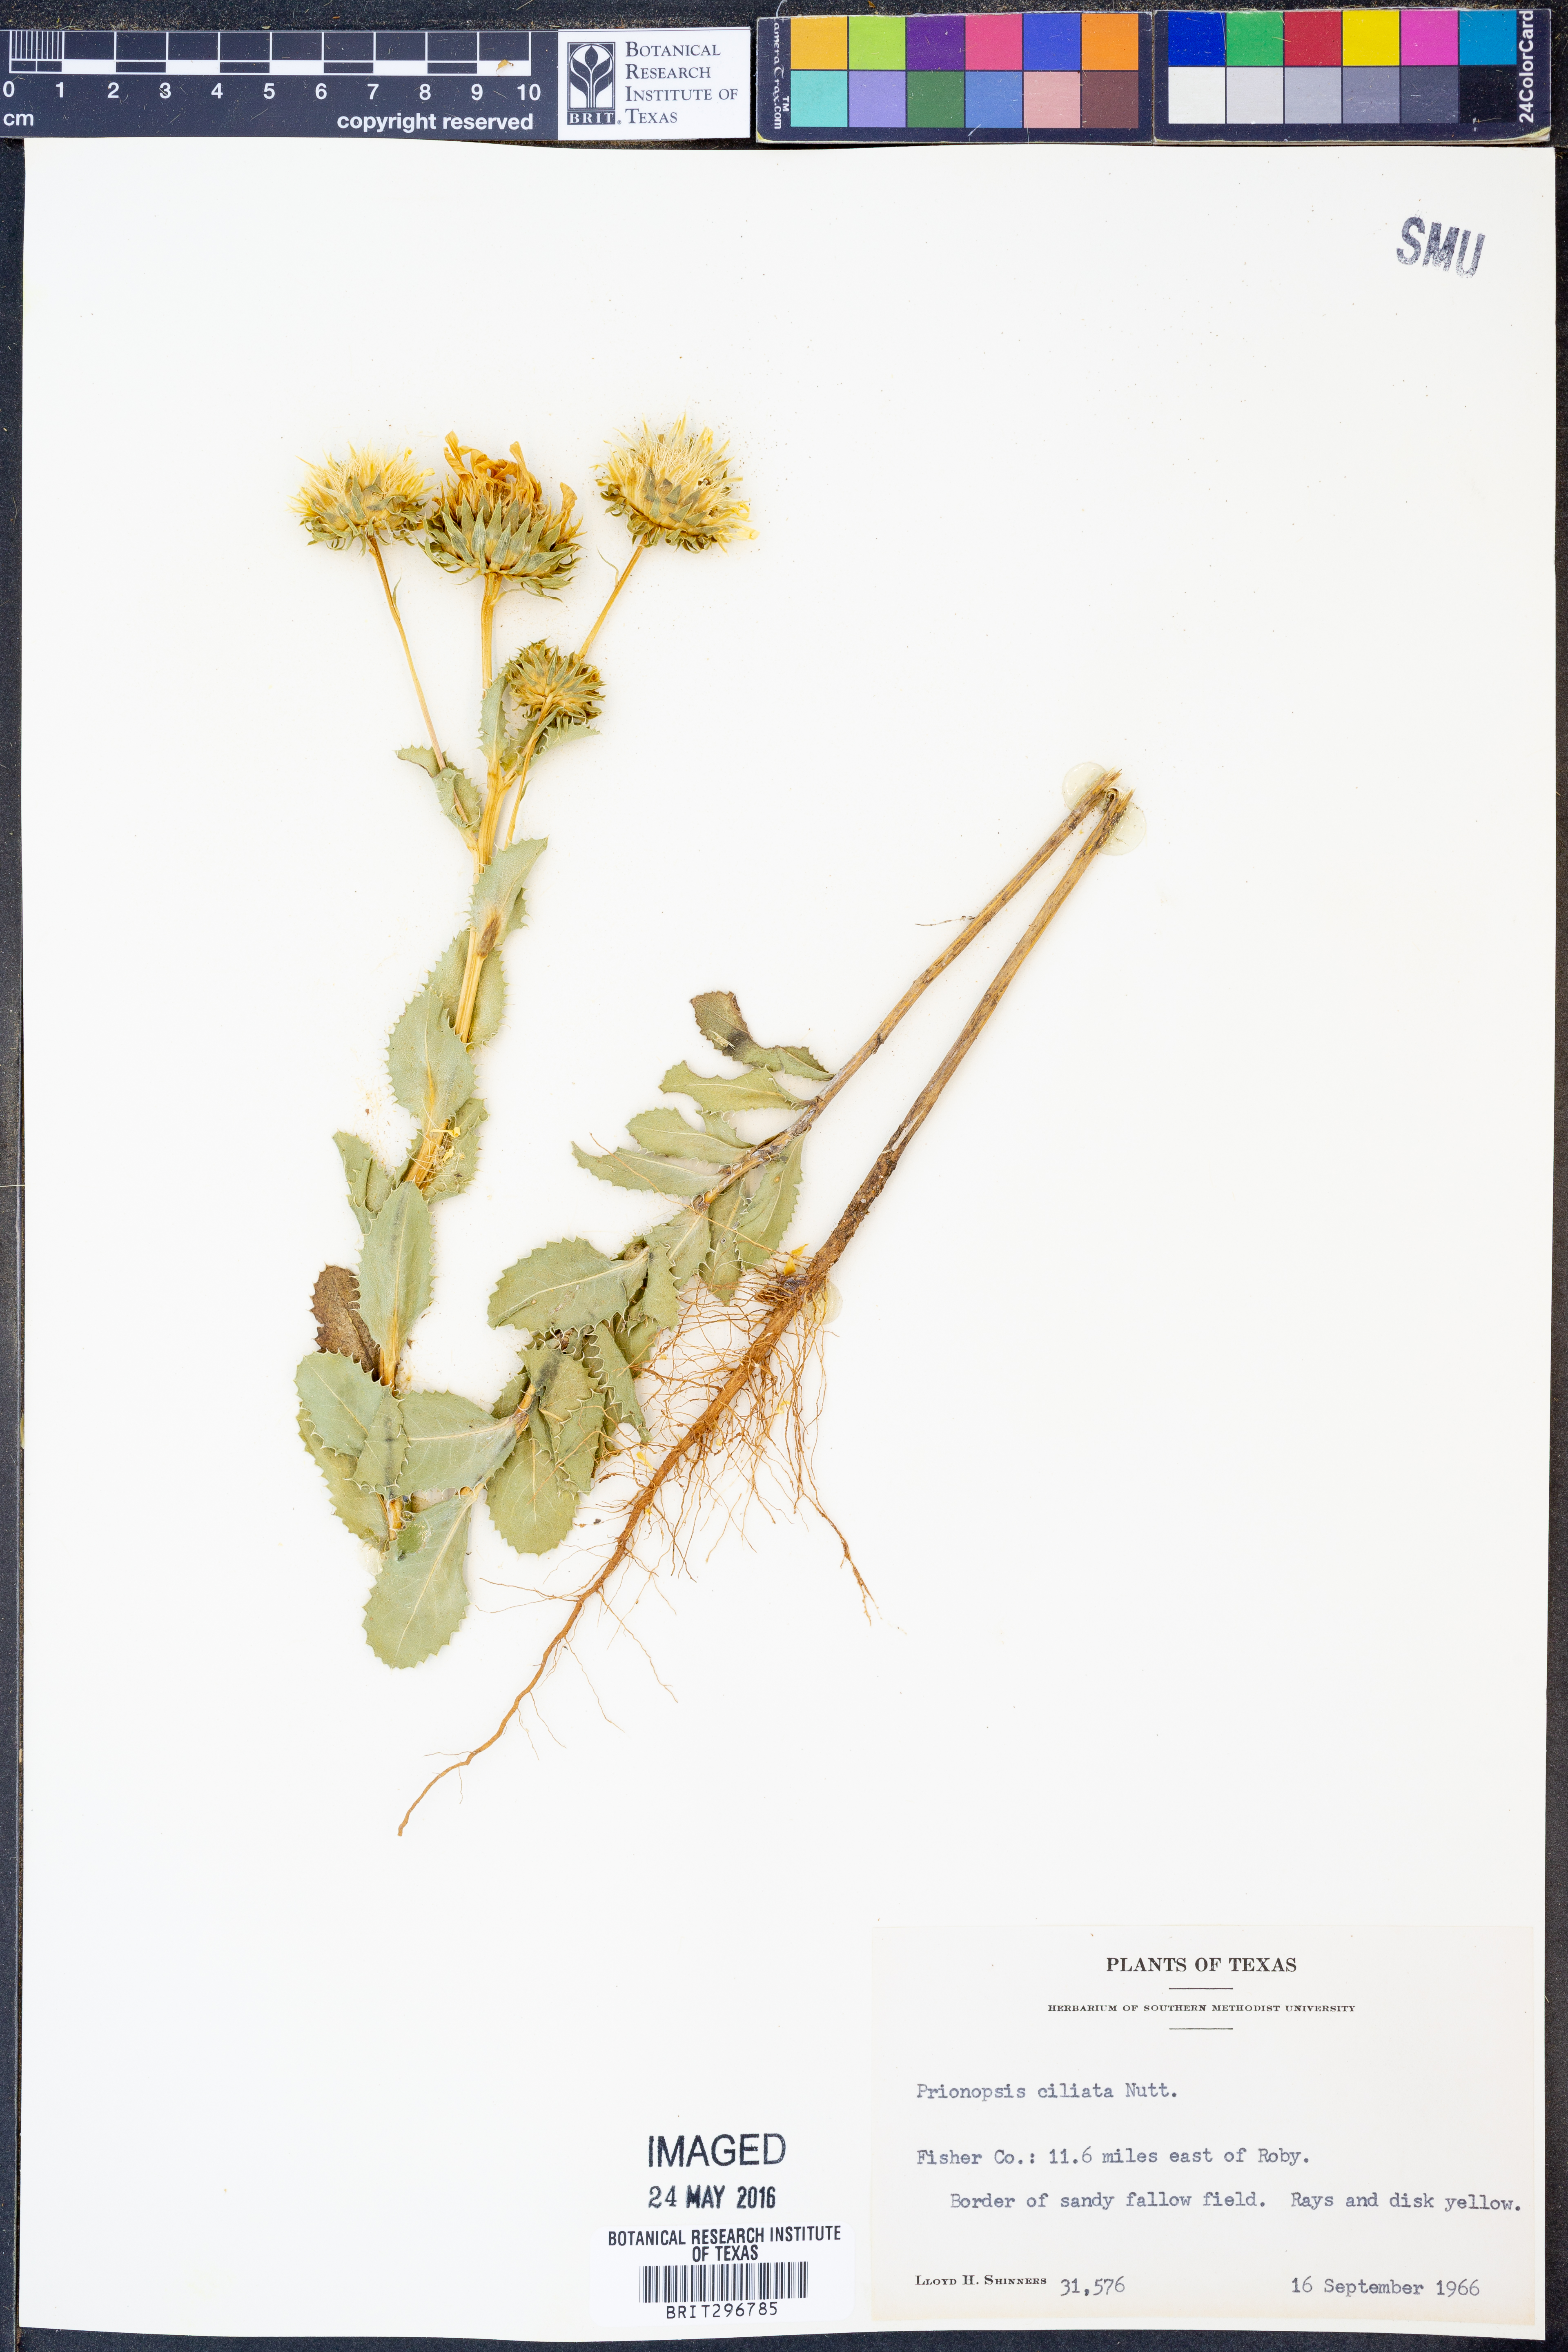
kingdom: Plantae
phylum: Tracheophyta
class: Magnoliopsida
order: Asterales
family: Asteraceae
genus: Grindelia
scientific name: Grindelia ciliata
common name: Goldenweed
